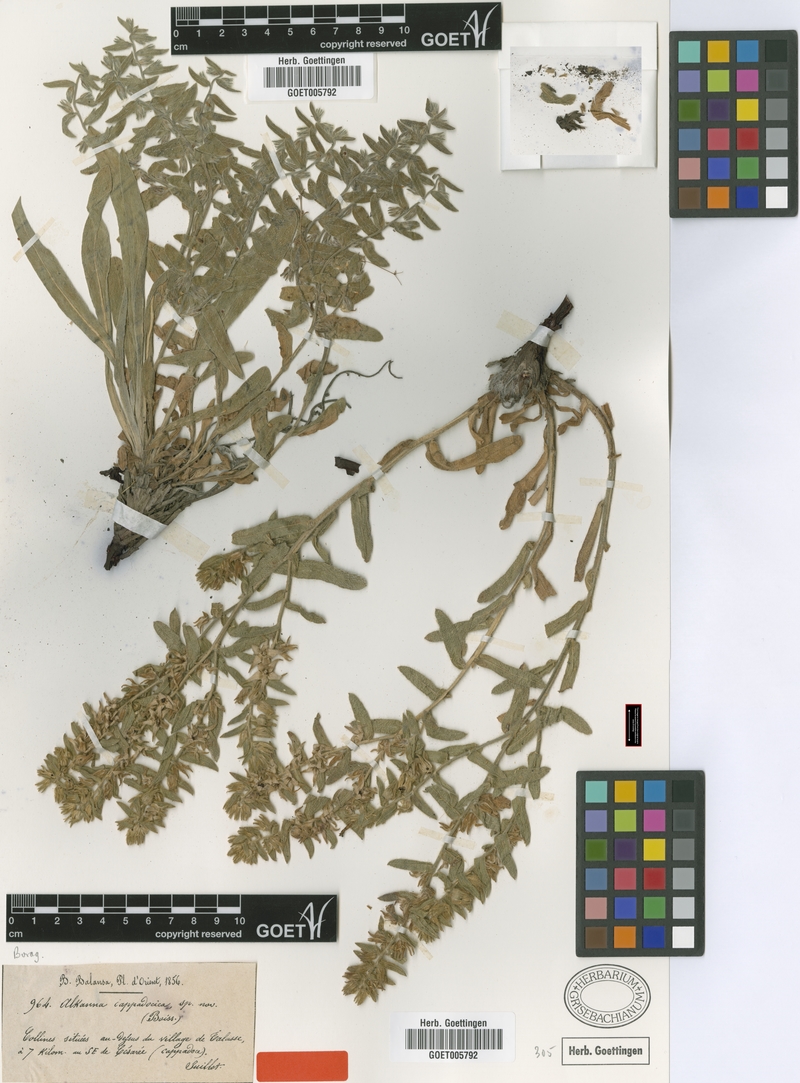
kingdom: Plantae
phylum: Tracheophyta
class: Magnoliopsida
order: Boraginales
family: Boraginaceae
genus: Alkanna
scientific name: Alkanna cappadocica
